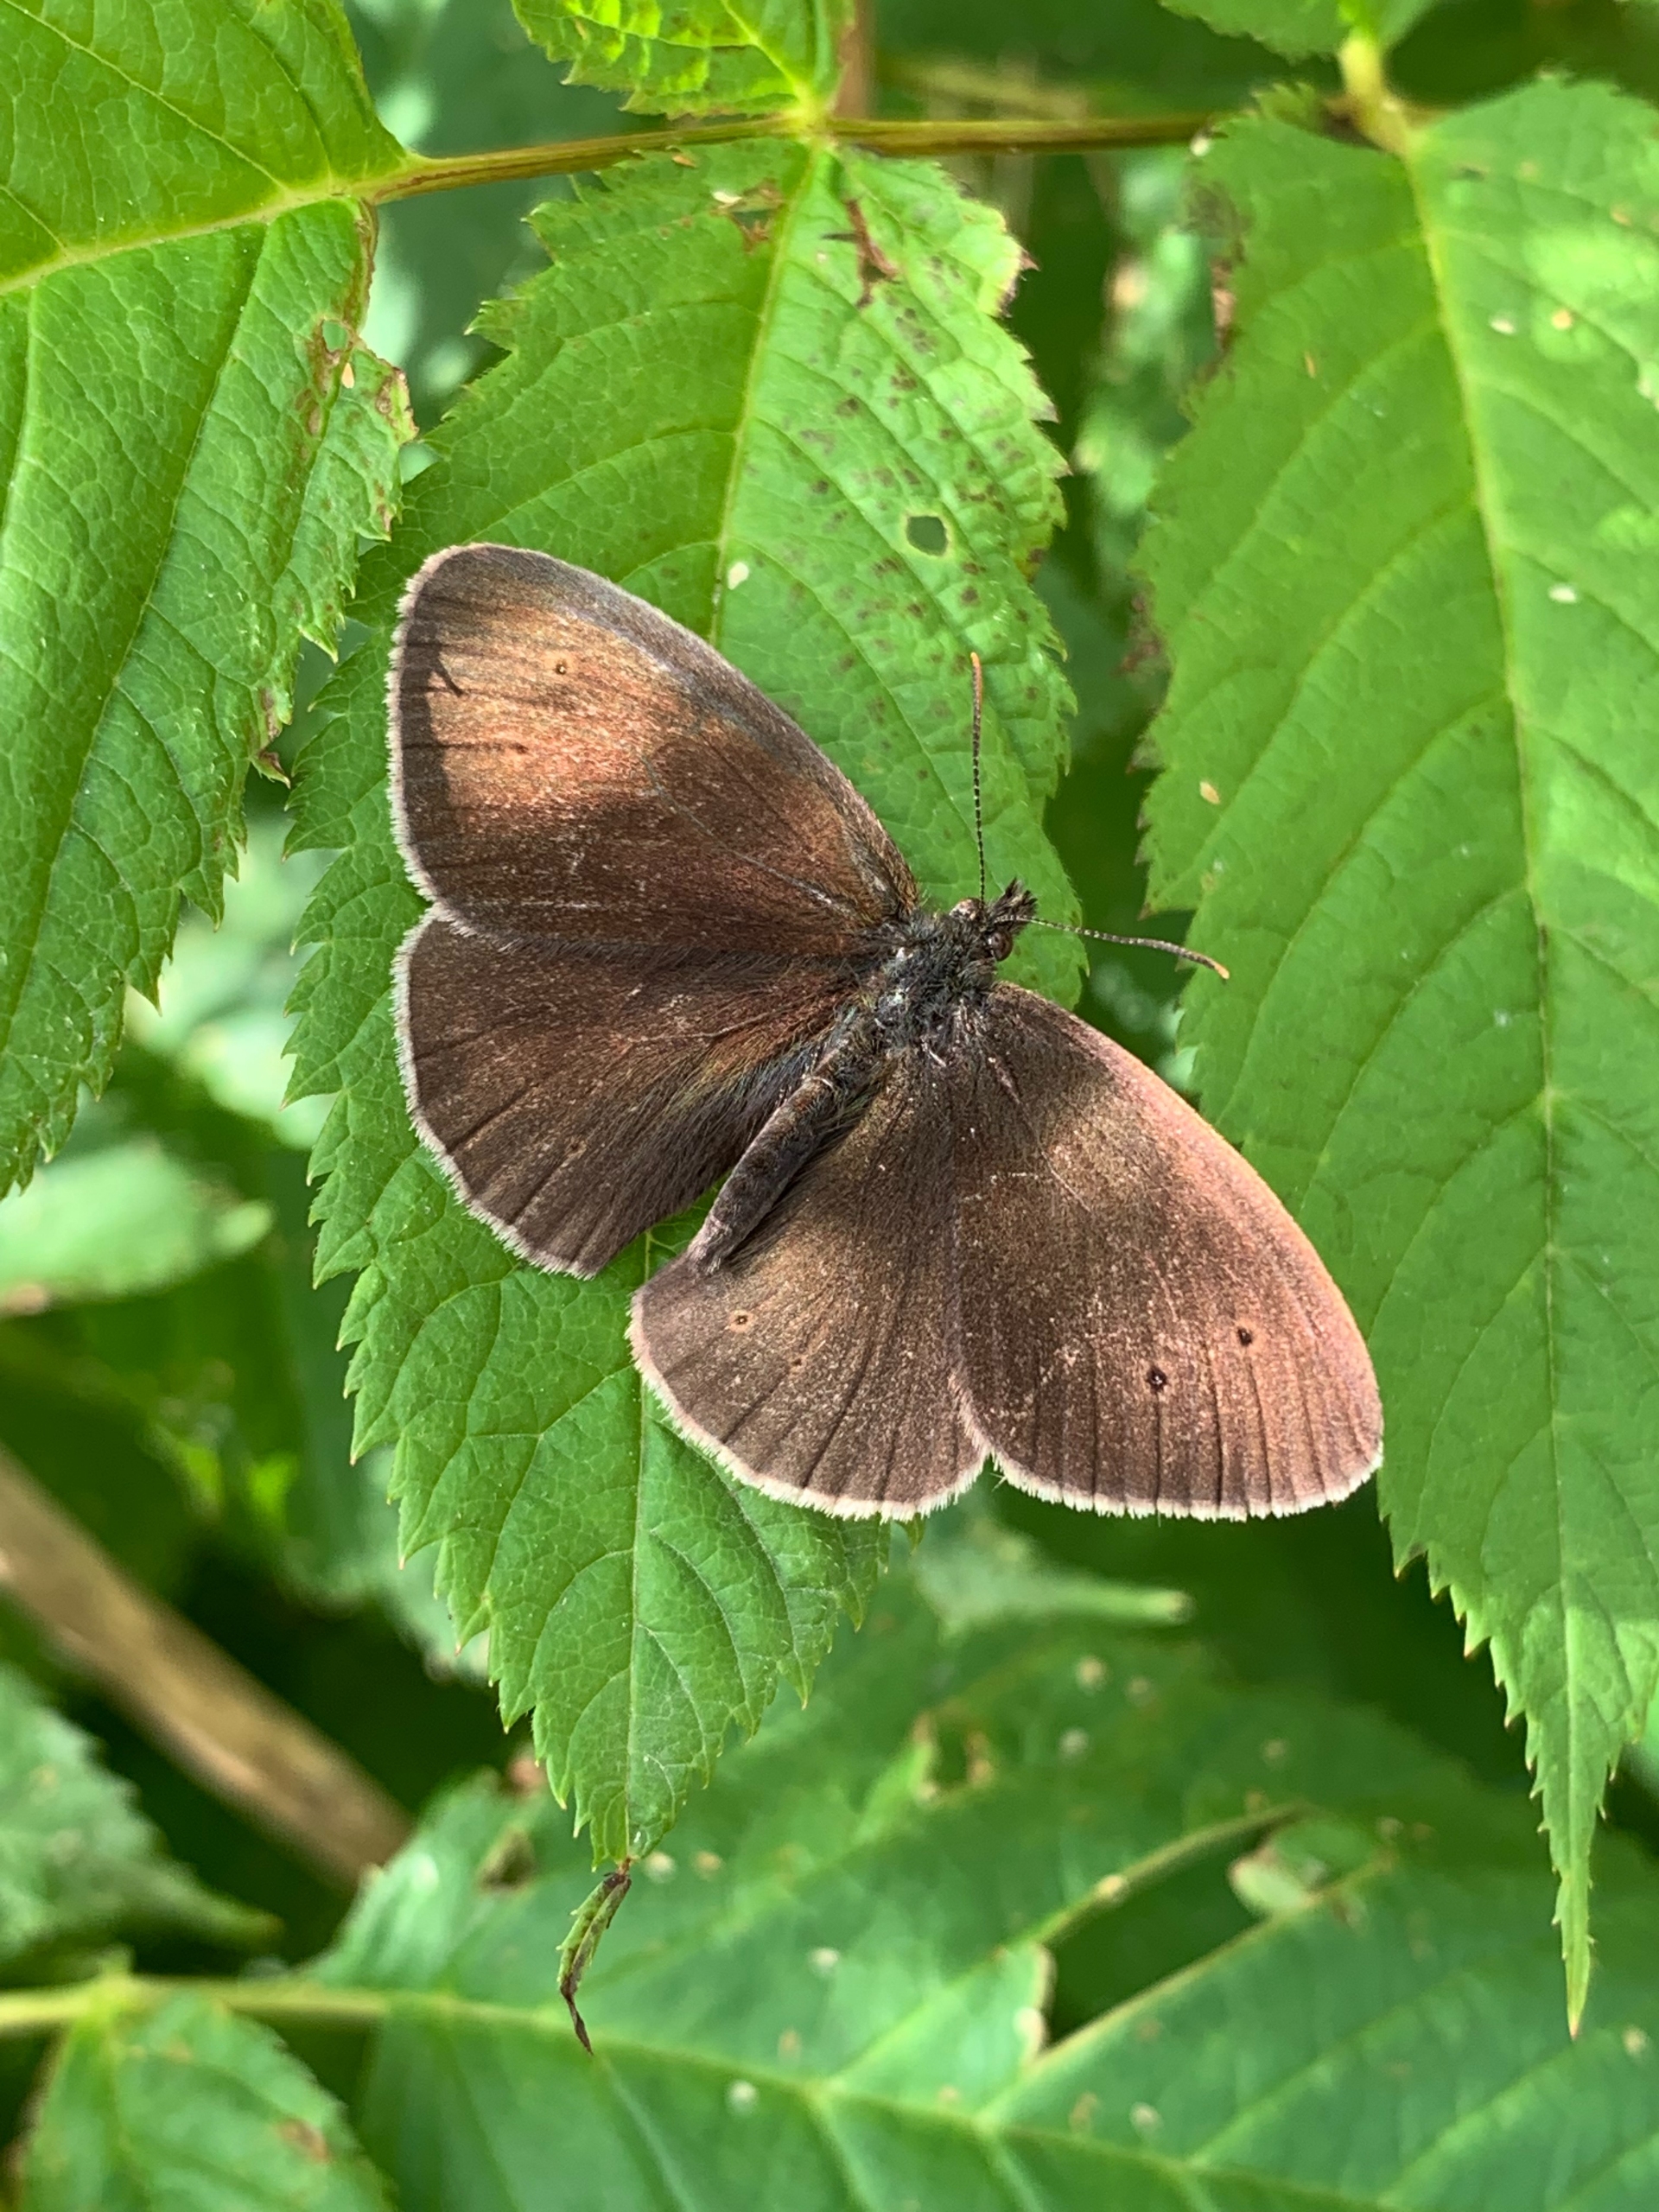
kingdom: Animalia
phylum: Arthropoda
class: Insecta
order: Lepidoptera
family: Nymphalidae
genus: Aphantopus
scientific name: Aphantopus hyperantus
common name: Engrandøje
